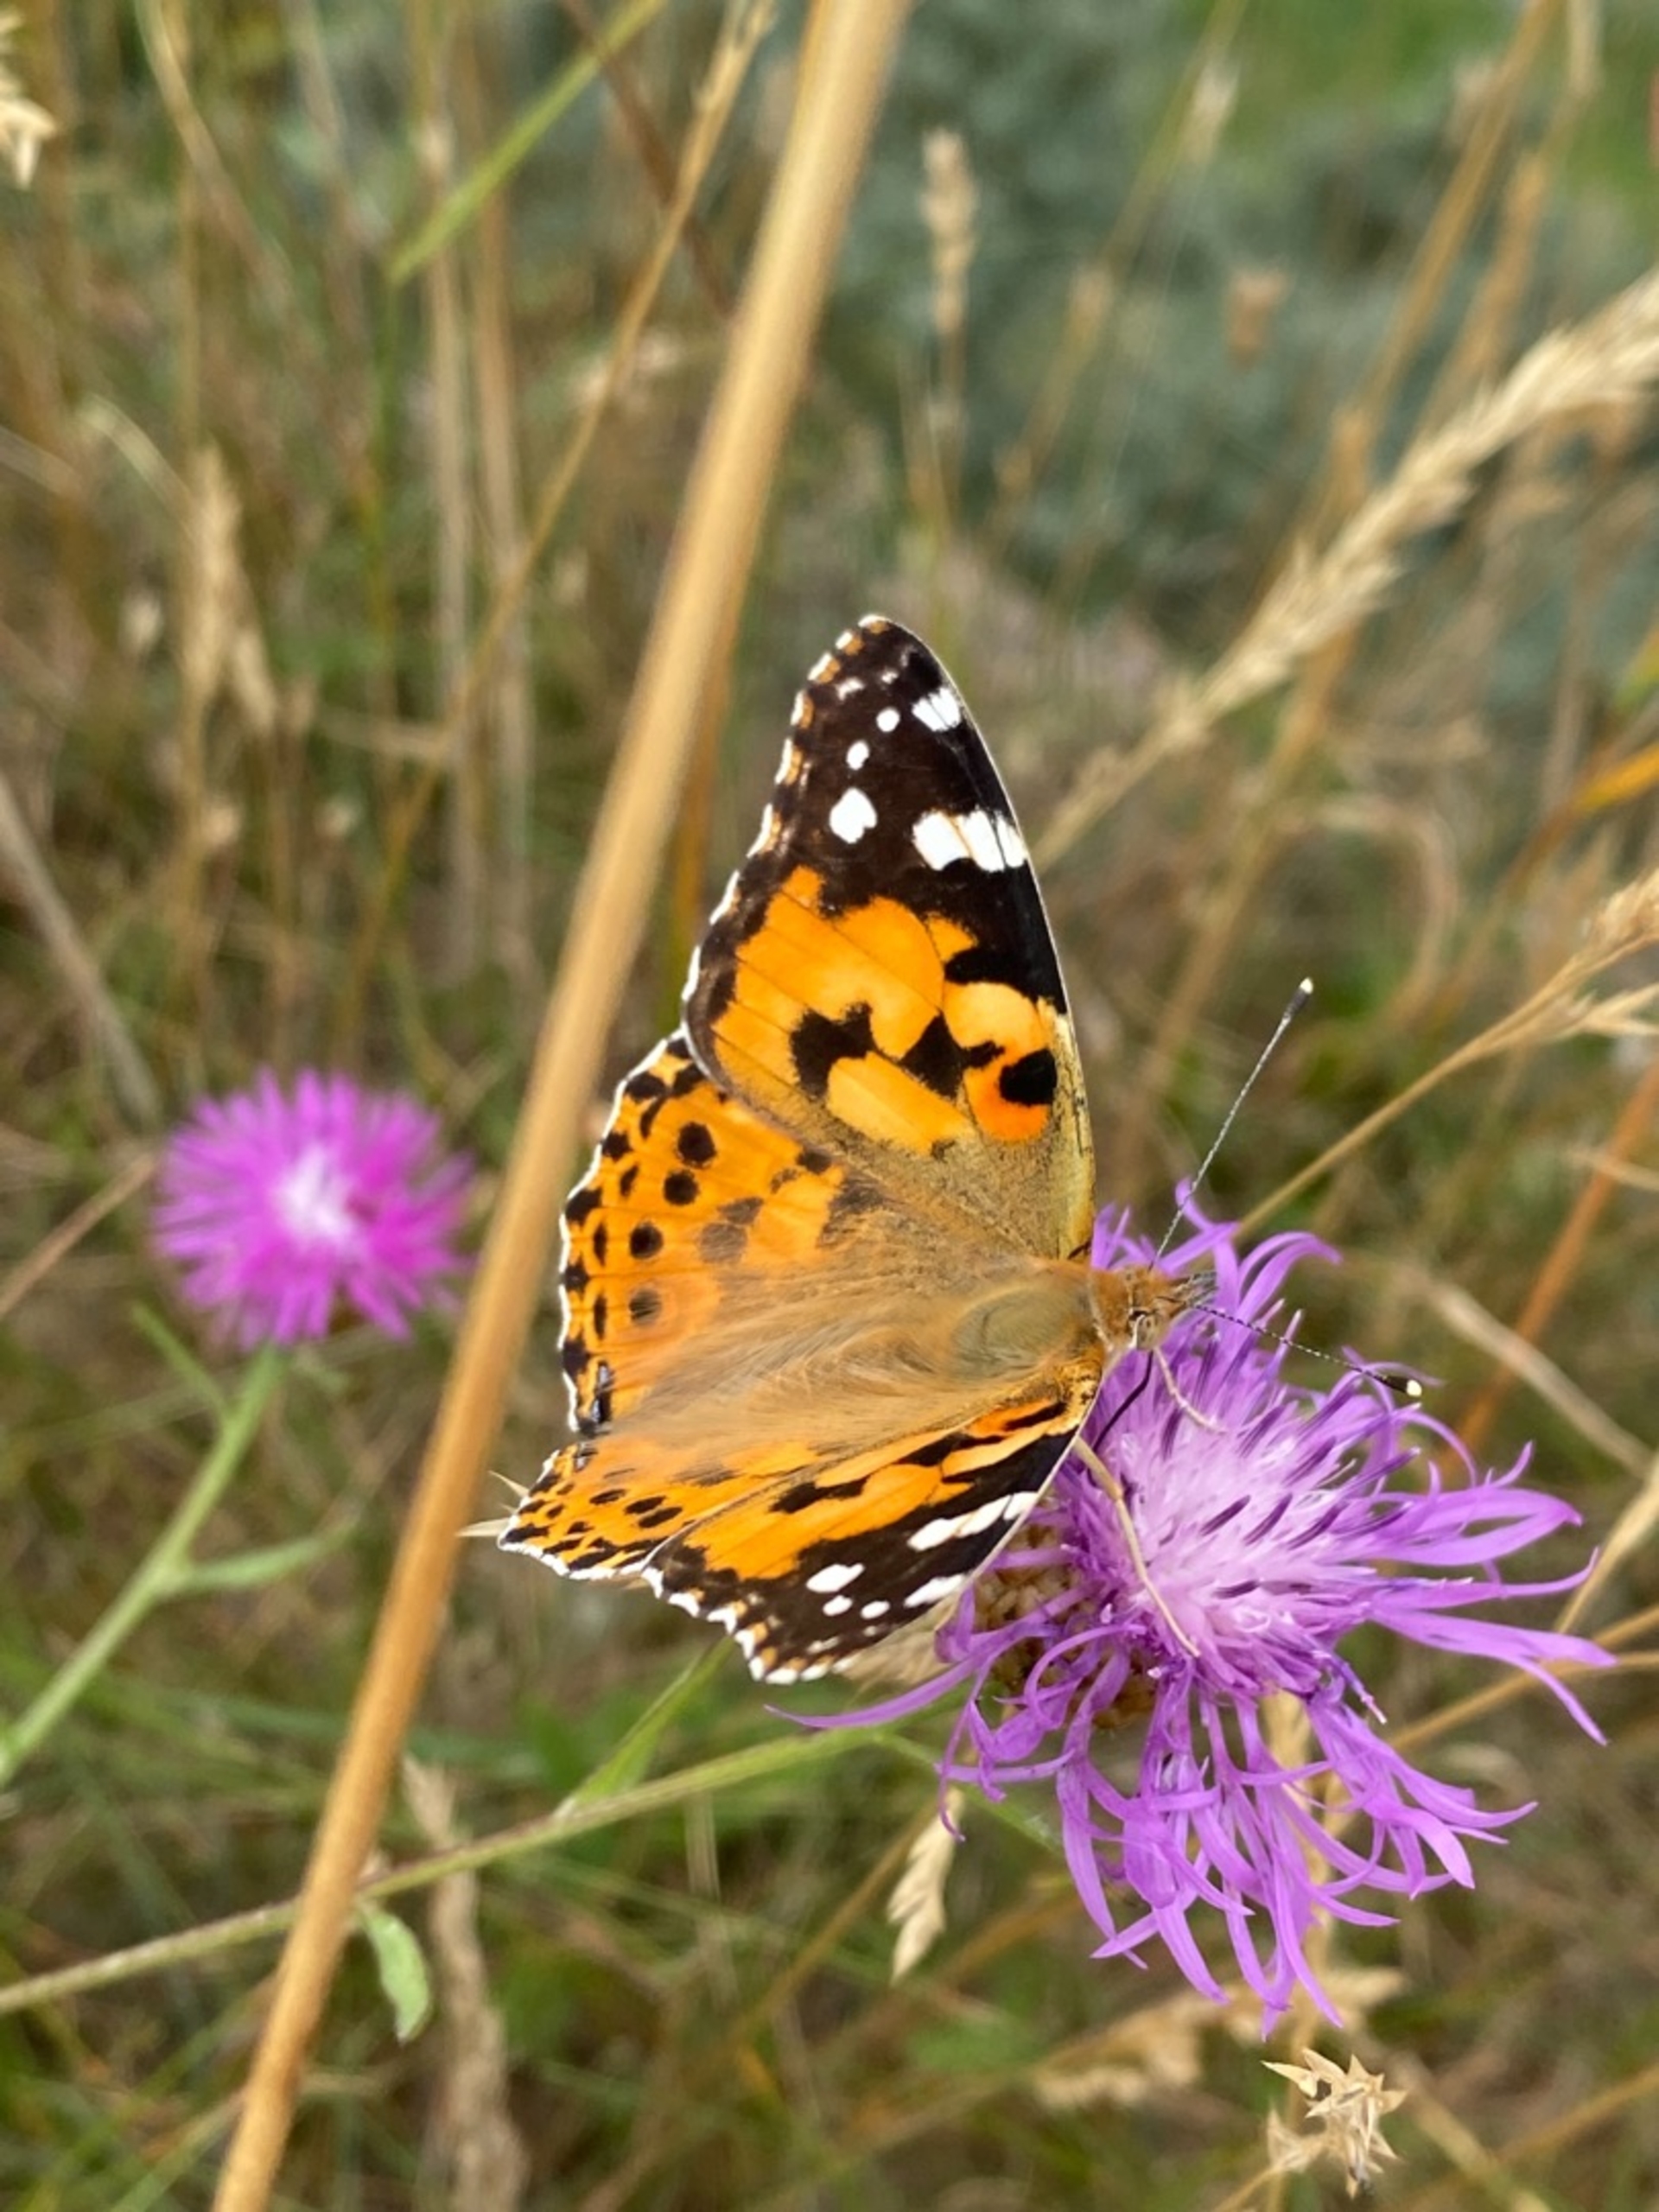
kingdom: Animalia
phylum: Arthropoda
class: Insecta
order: Lepidoptera
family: Nymphalidae
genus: Vanessa
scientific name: Vanessa cardui
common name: Tidselsommerfugl
